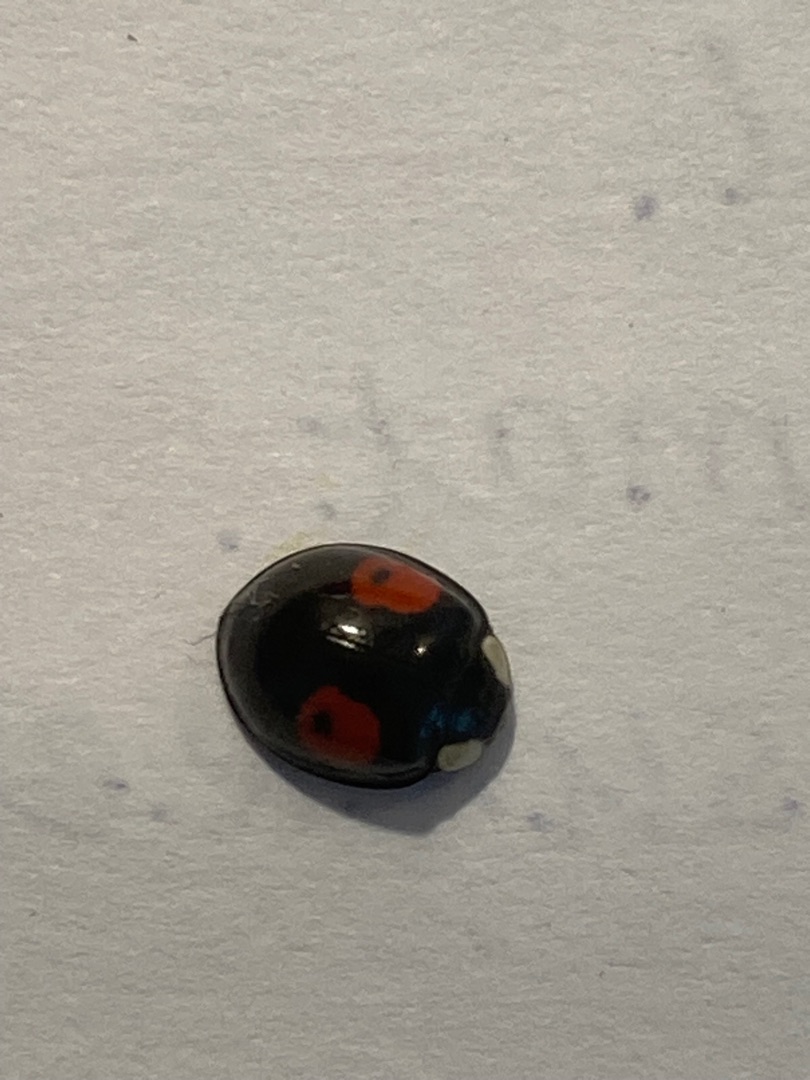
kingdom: Animalia
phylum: Arthropoda
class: Insecta
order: Coleoptera
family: Coccinellidae
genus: Harmonia
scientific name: Harmonia axyridis
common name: Harlekinmariehøne
